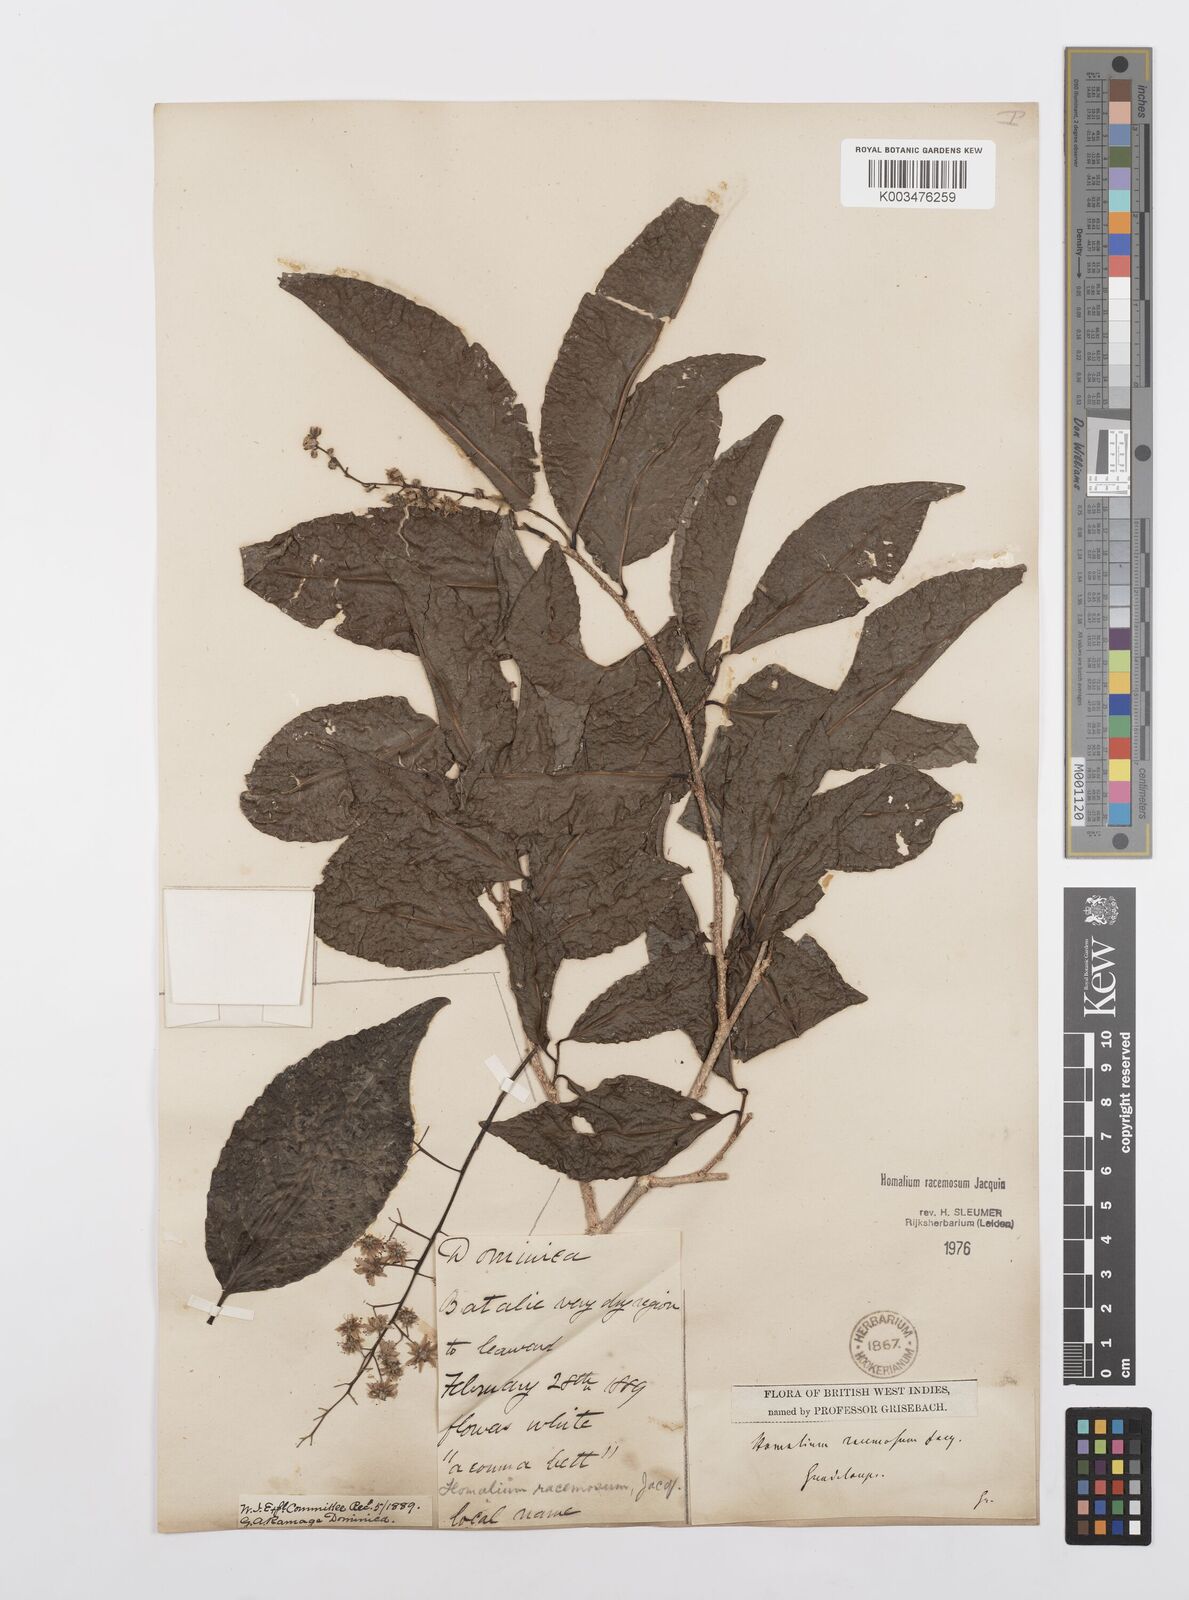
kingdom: Plantae
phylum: Tracheophyta
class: Magnoliopsida
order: Malpighiales
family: Salicaceae
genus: Homalium
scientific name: Homalium racemosum
